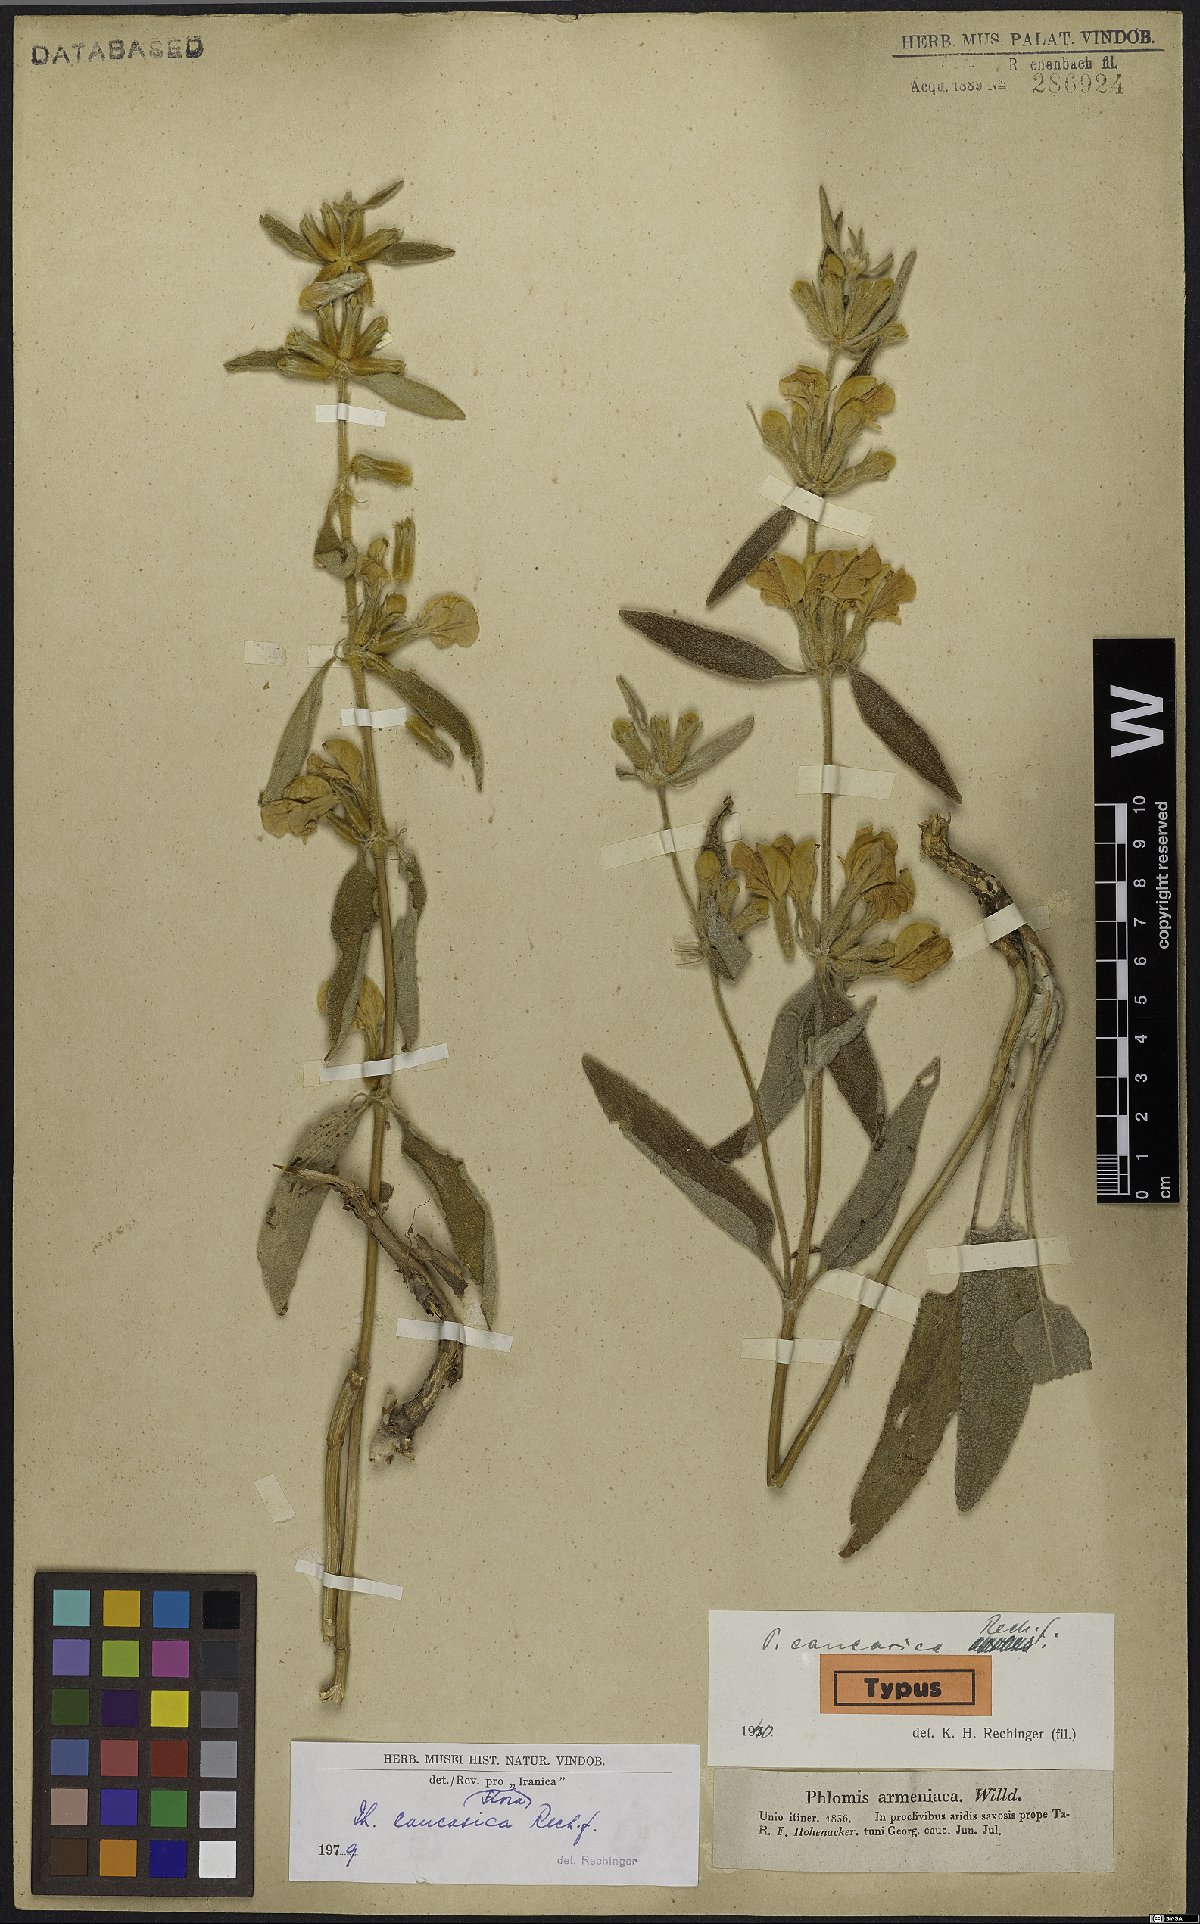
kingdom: Plantae
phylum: Tracheophyta
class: Magnoliopsida
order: Lamiales
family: Lamiaceae
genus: Phlomis
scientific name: Phlomis orientalis
